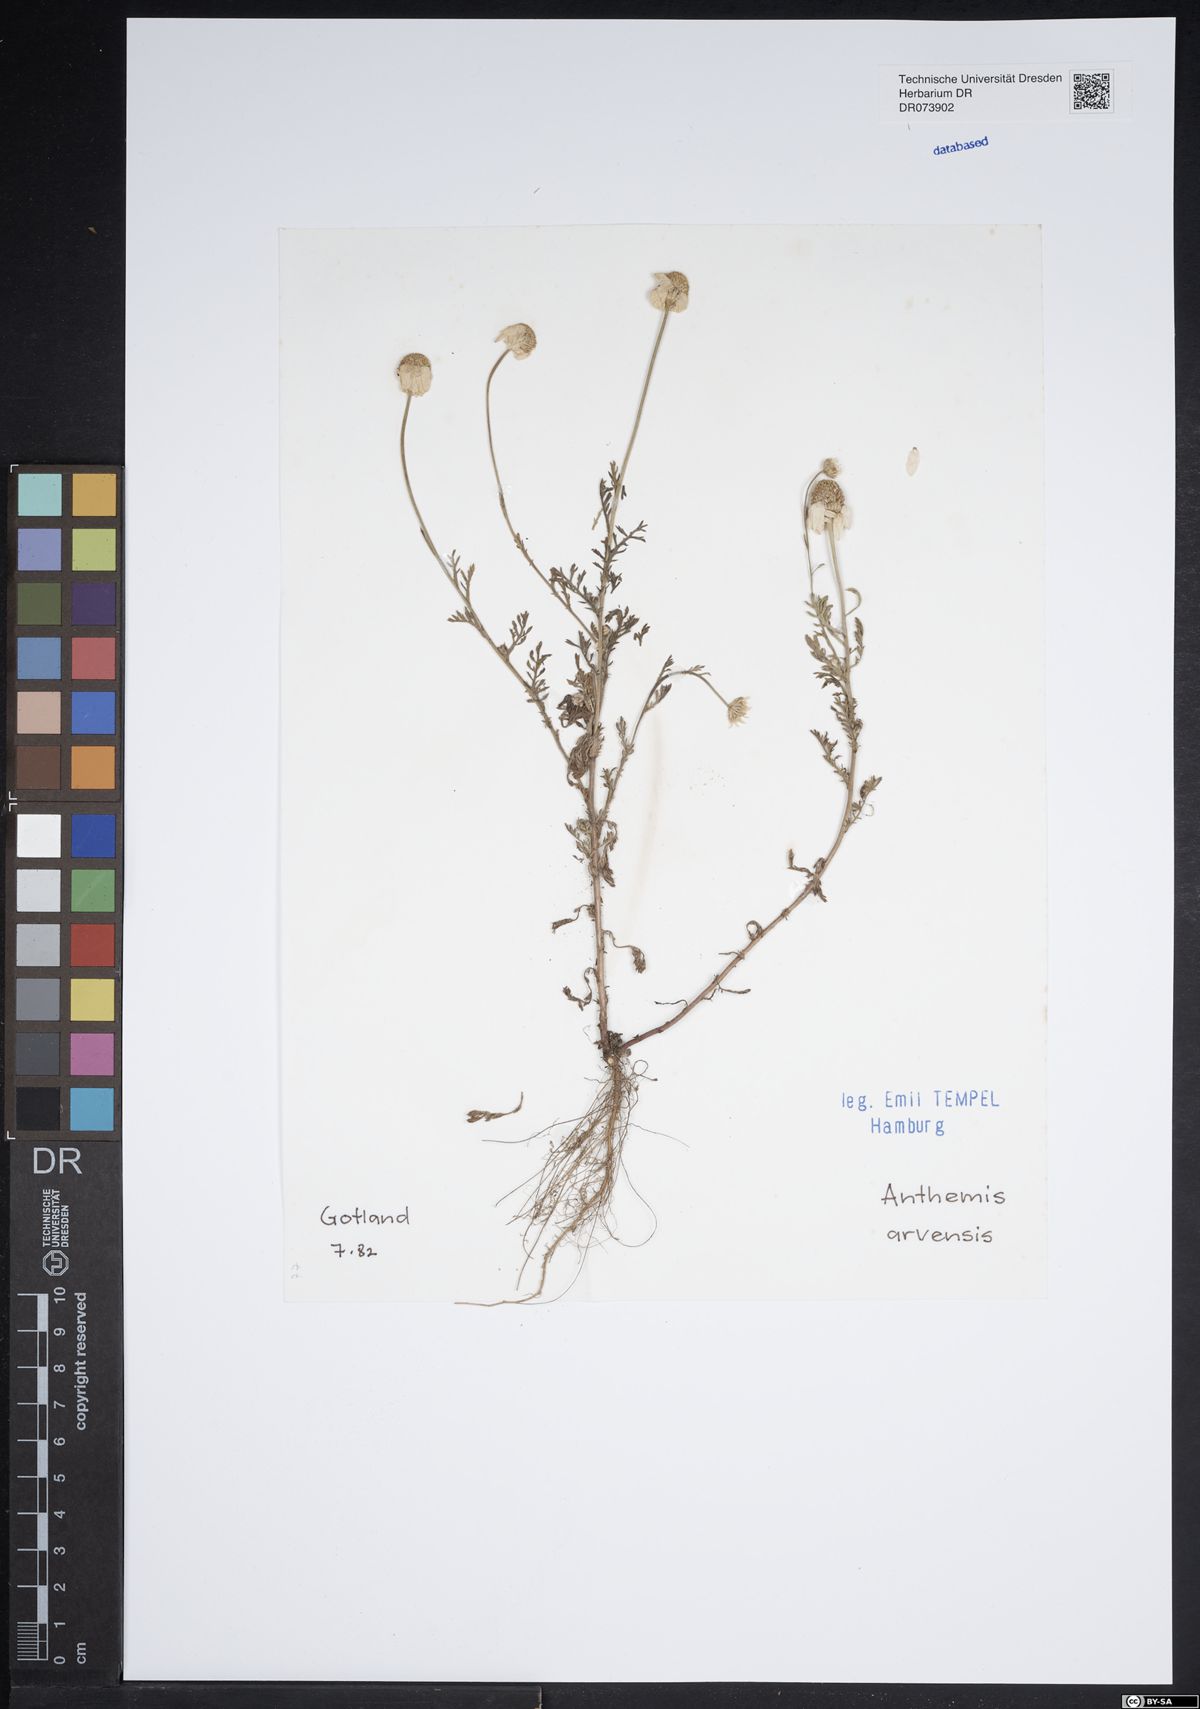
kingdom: Plantae
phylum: Tracheophyta
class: Magnoliopsida
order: Asterales
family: Asteraceae
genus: Anthemis
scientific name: Anthemis arvensis
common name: Corn chamomile
